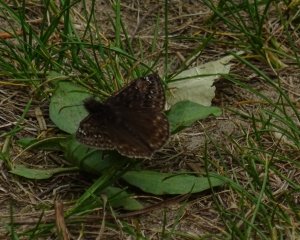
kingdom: Animalia
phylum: Arthropoda
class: Insecta
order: Lepidoptera
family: Hesperiidae
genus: Gesta
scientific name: Gesta
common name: Juvenal's Duskywing
